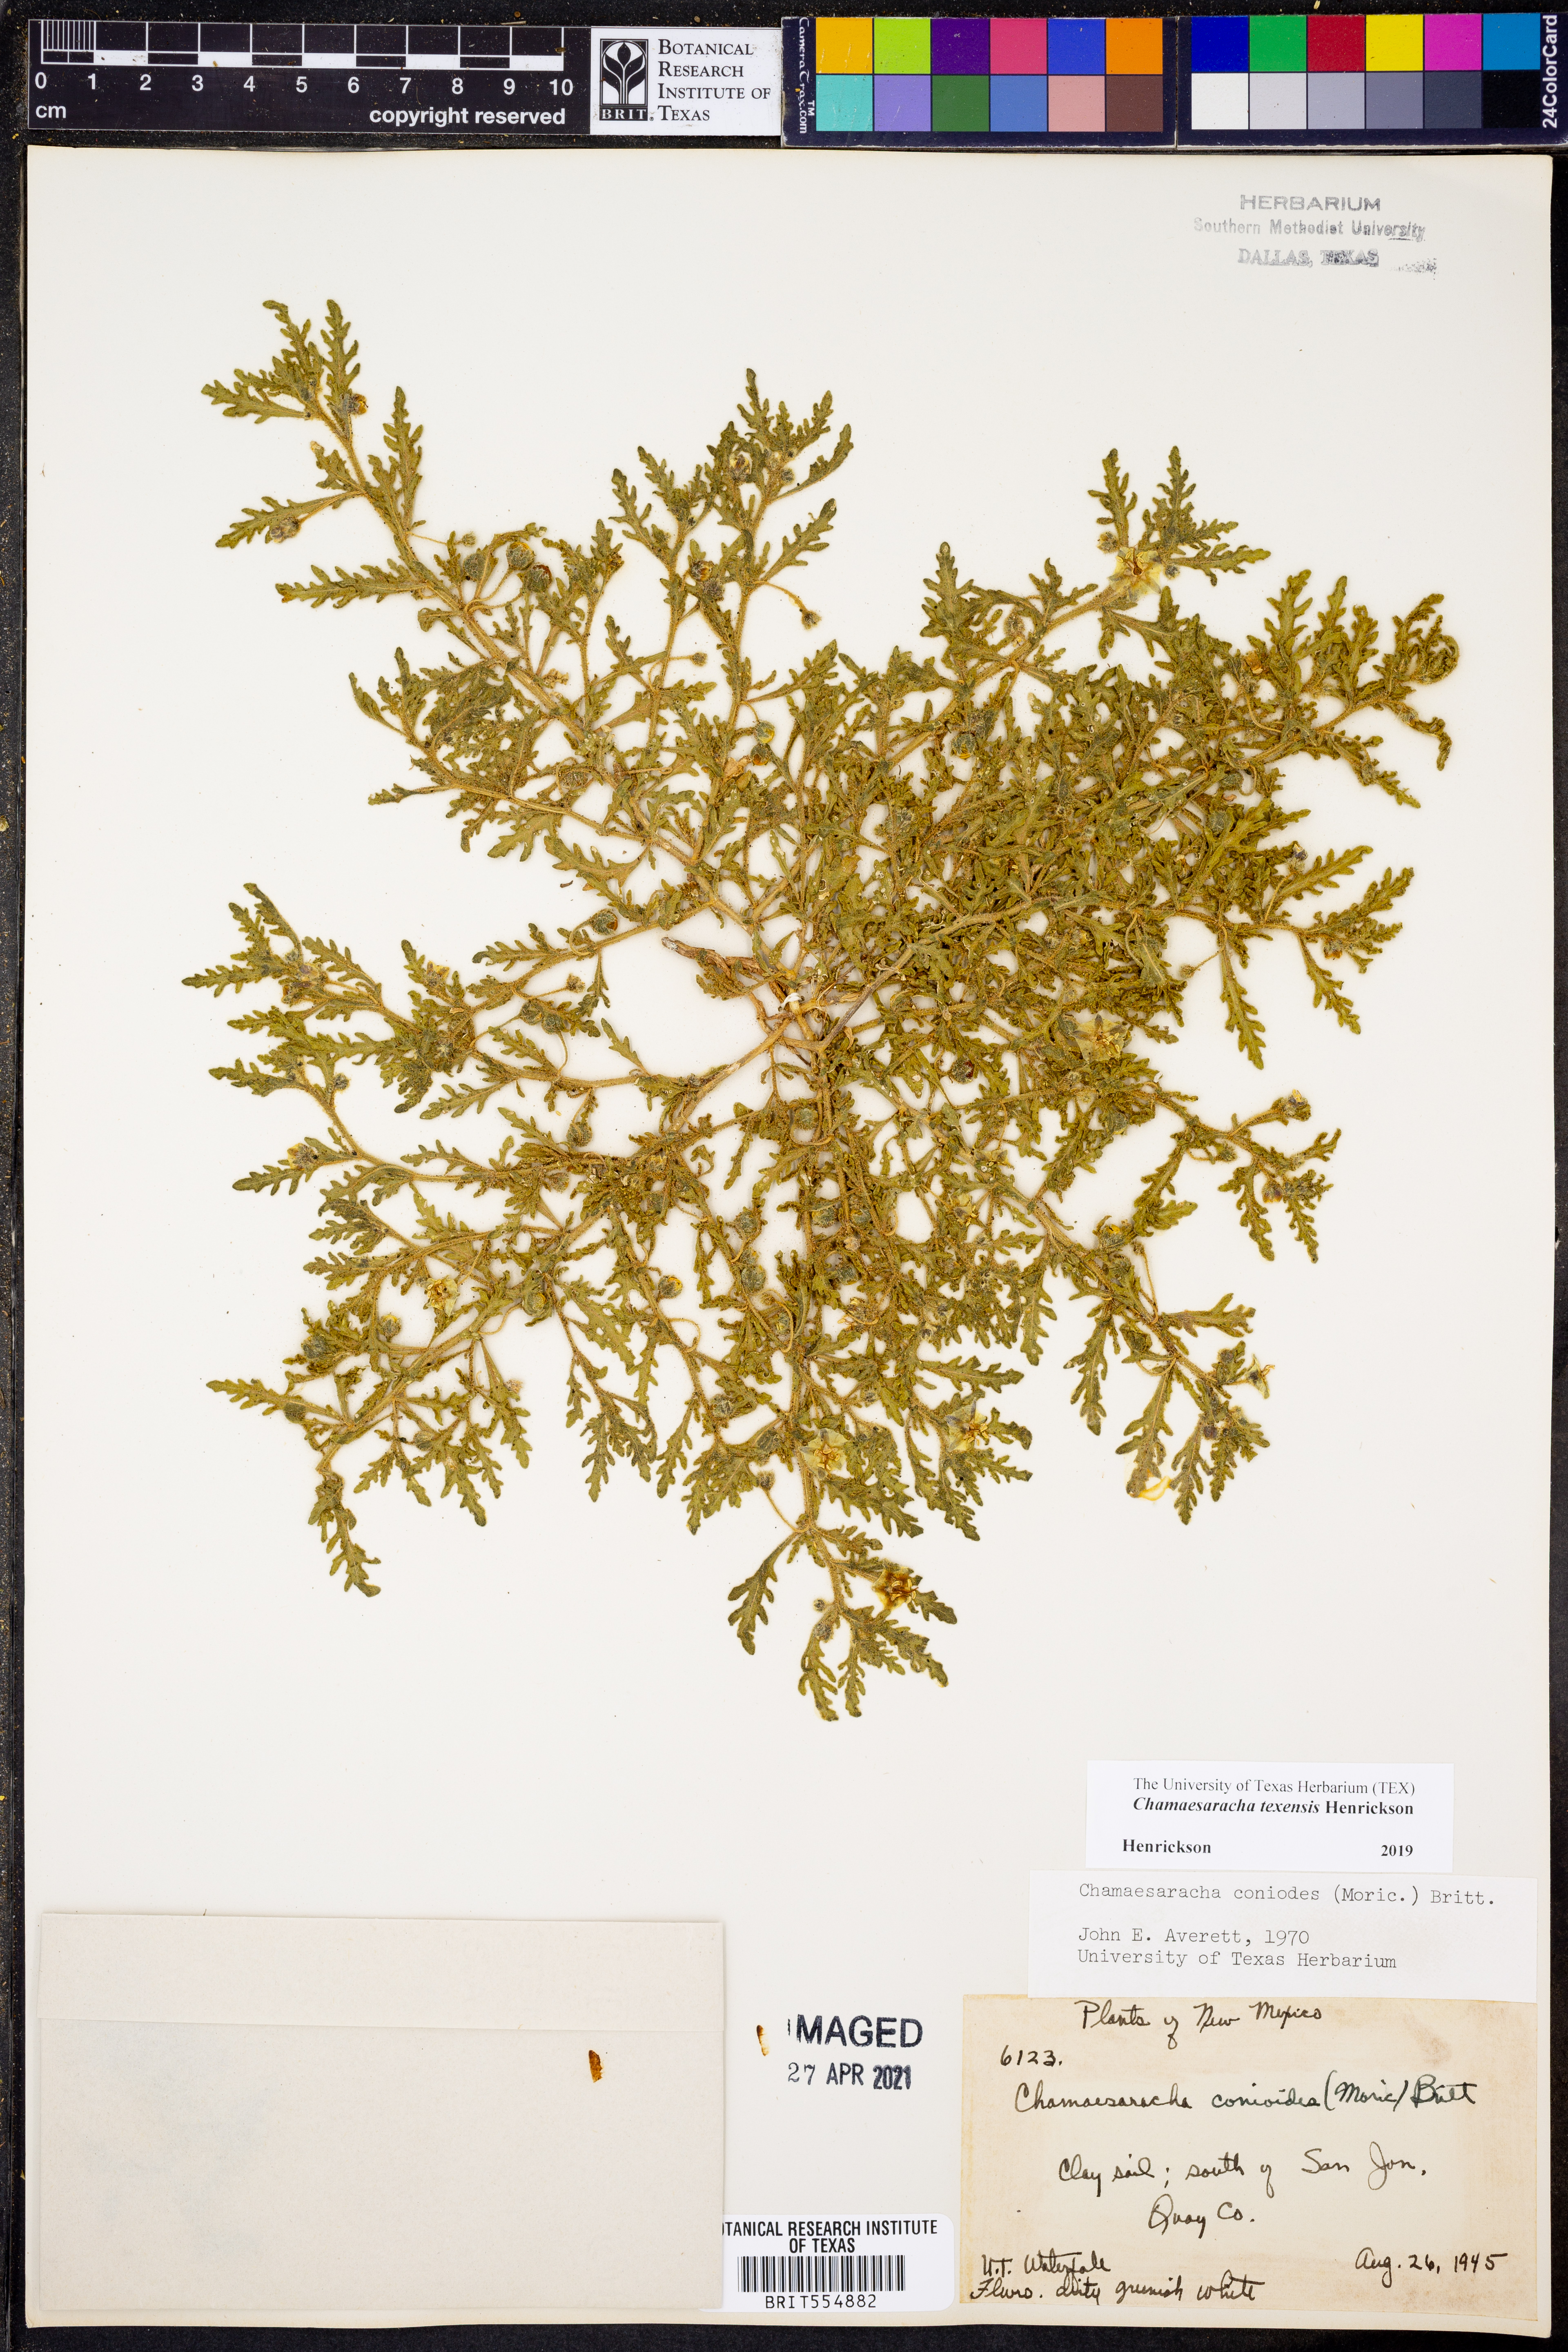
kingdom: Plantae
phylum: Tracheophyta
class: Magnoliopsida
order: Solanales
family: Solanaceae
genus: Chamaesaracha
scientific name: Chamaesaracha texensis
